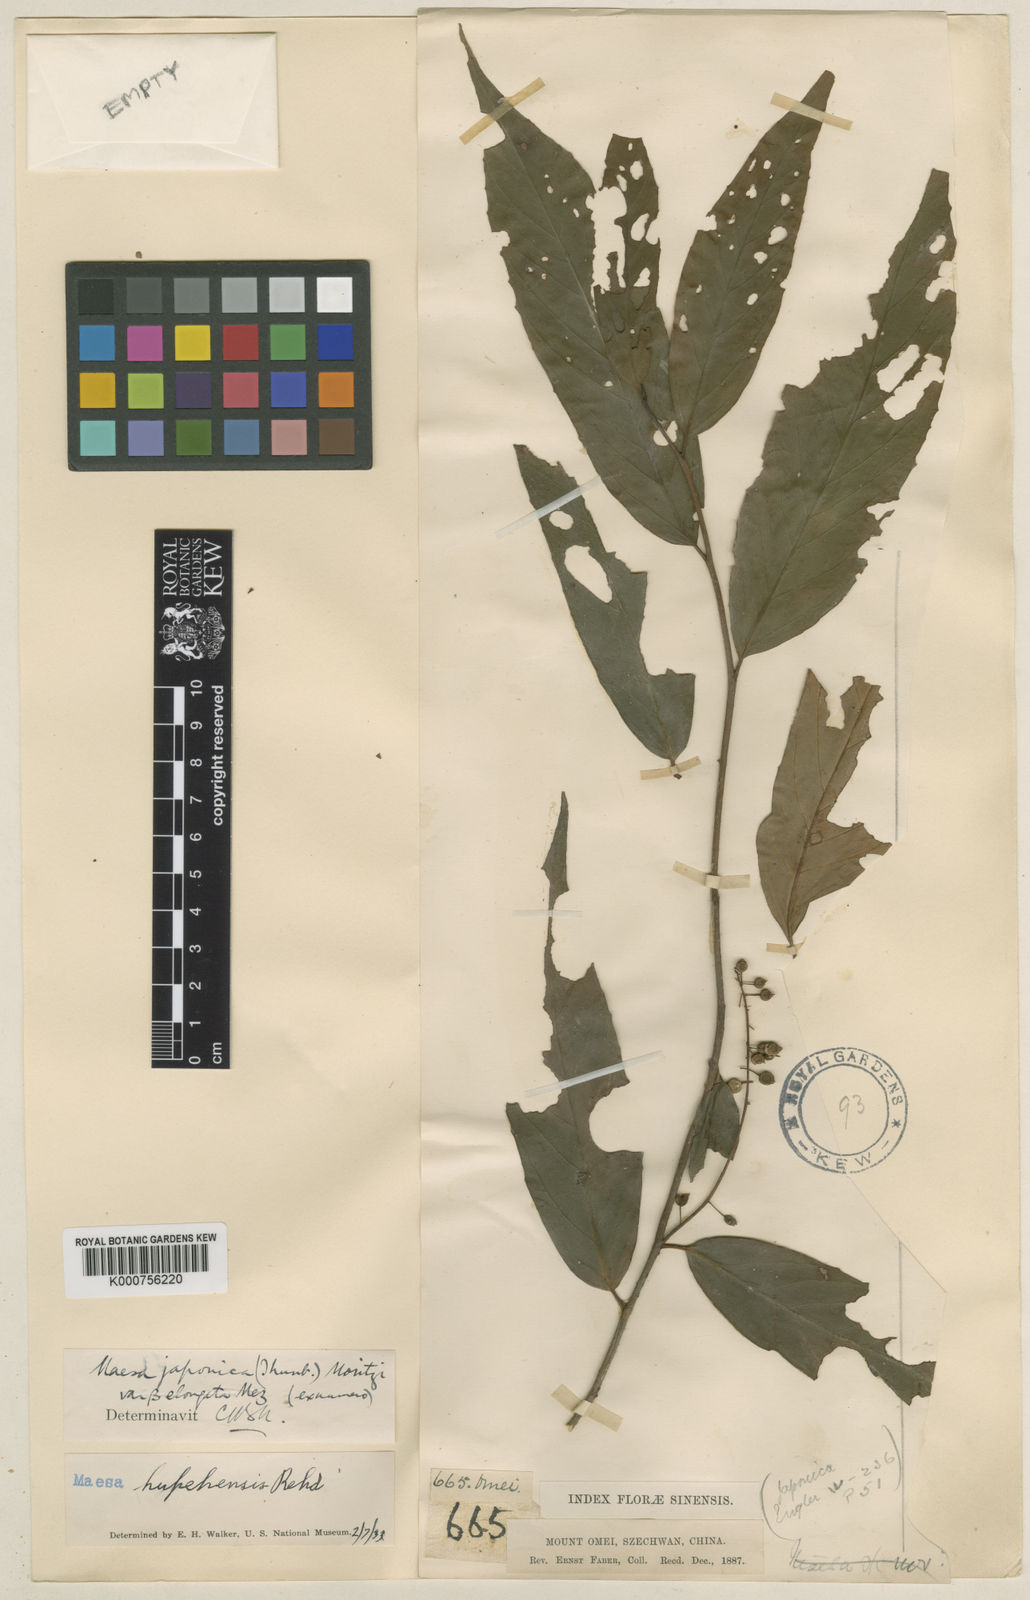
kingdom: Plantae
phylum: Tracheophyta
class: Magnoliopsida
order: Ericales
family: Primulaceae
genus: Maesa
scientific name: Maesa hupehensis
